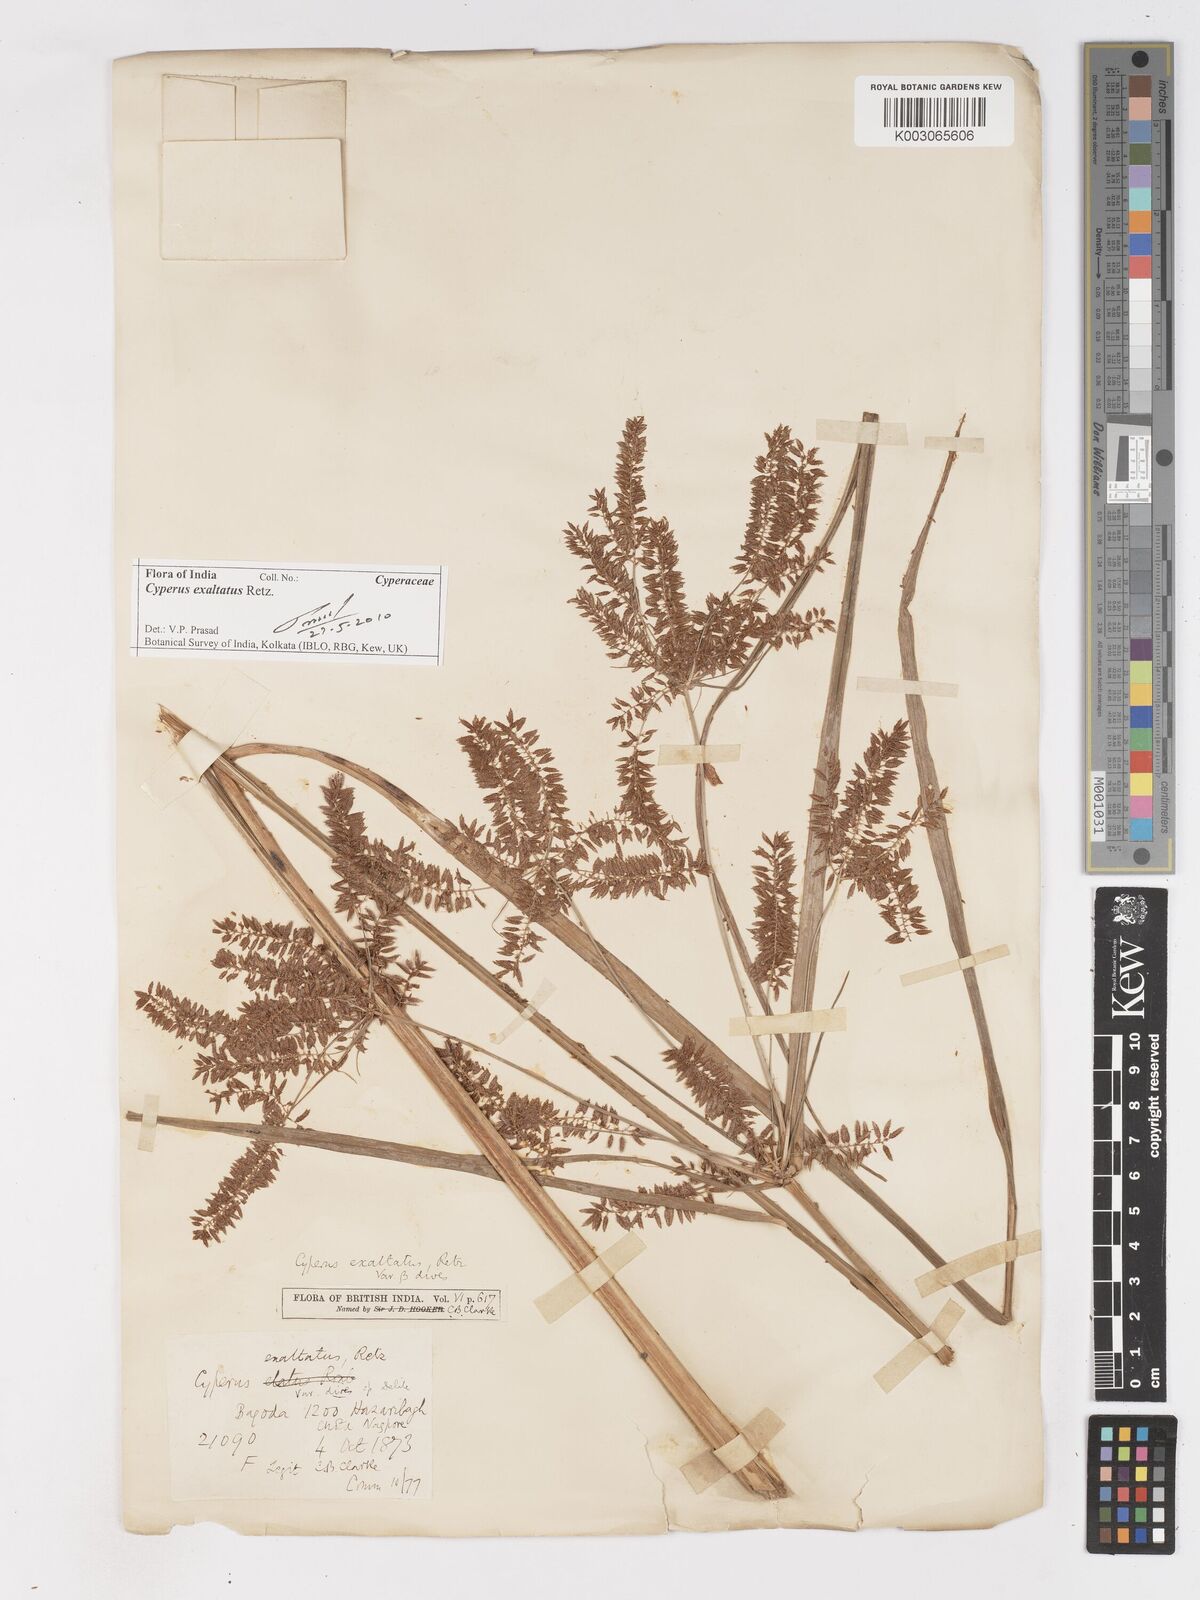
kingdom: Plantae
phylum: Tracheophyta
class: Liliopsida
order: Poales
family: Cyperaceae
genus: Cyperus
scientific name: Cyperus exaltatus
